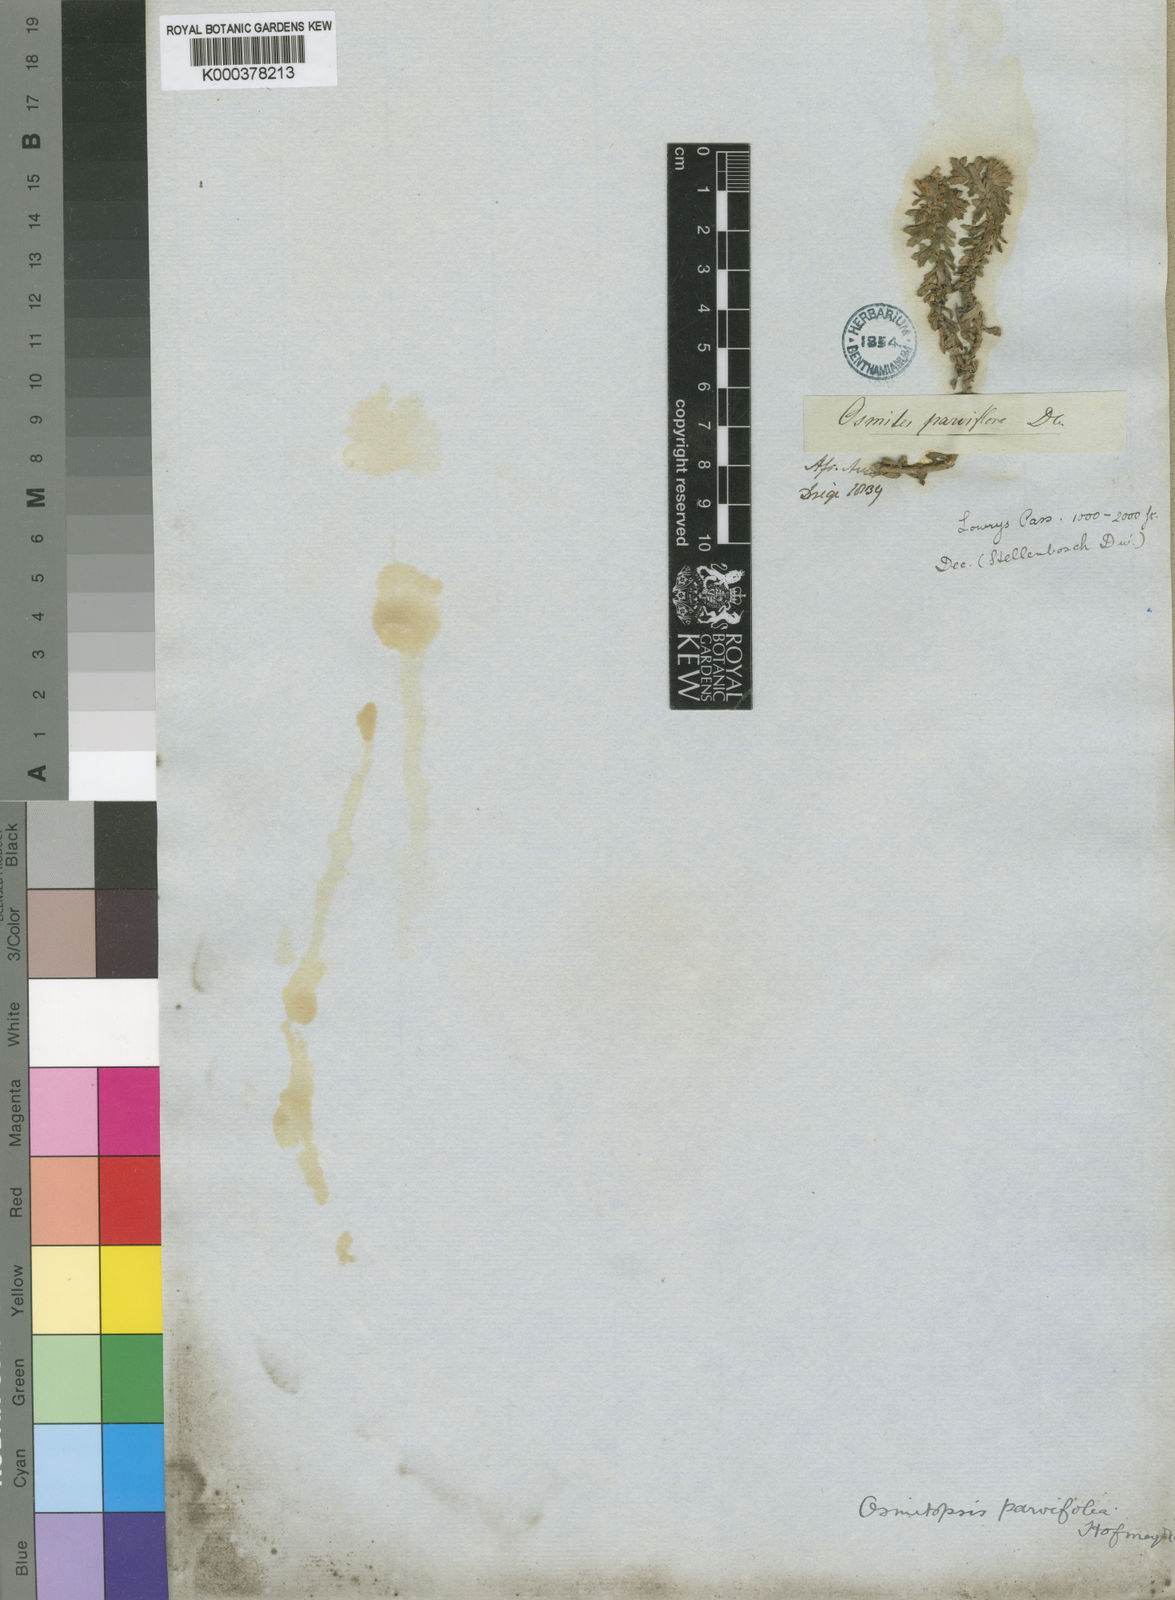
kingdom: Plantae
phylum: Tracheophyta
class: Magnoliopsida
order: Asterales
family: Asteraceae
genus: Osmitopsis
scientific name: Osmitopsis parvifolia
